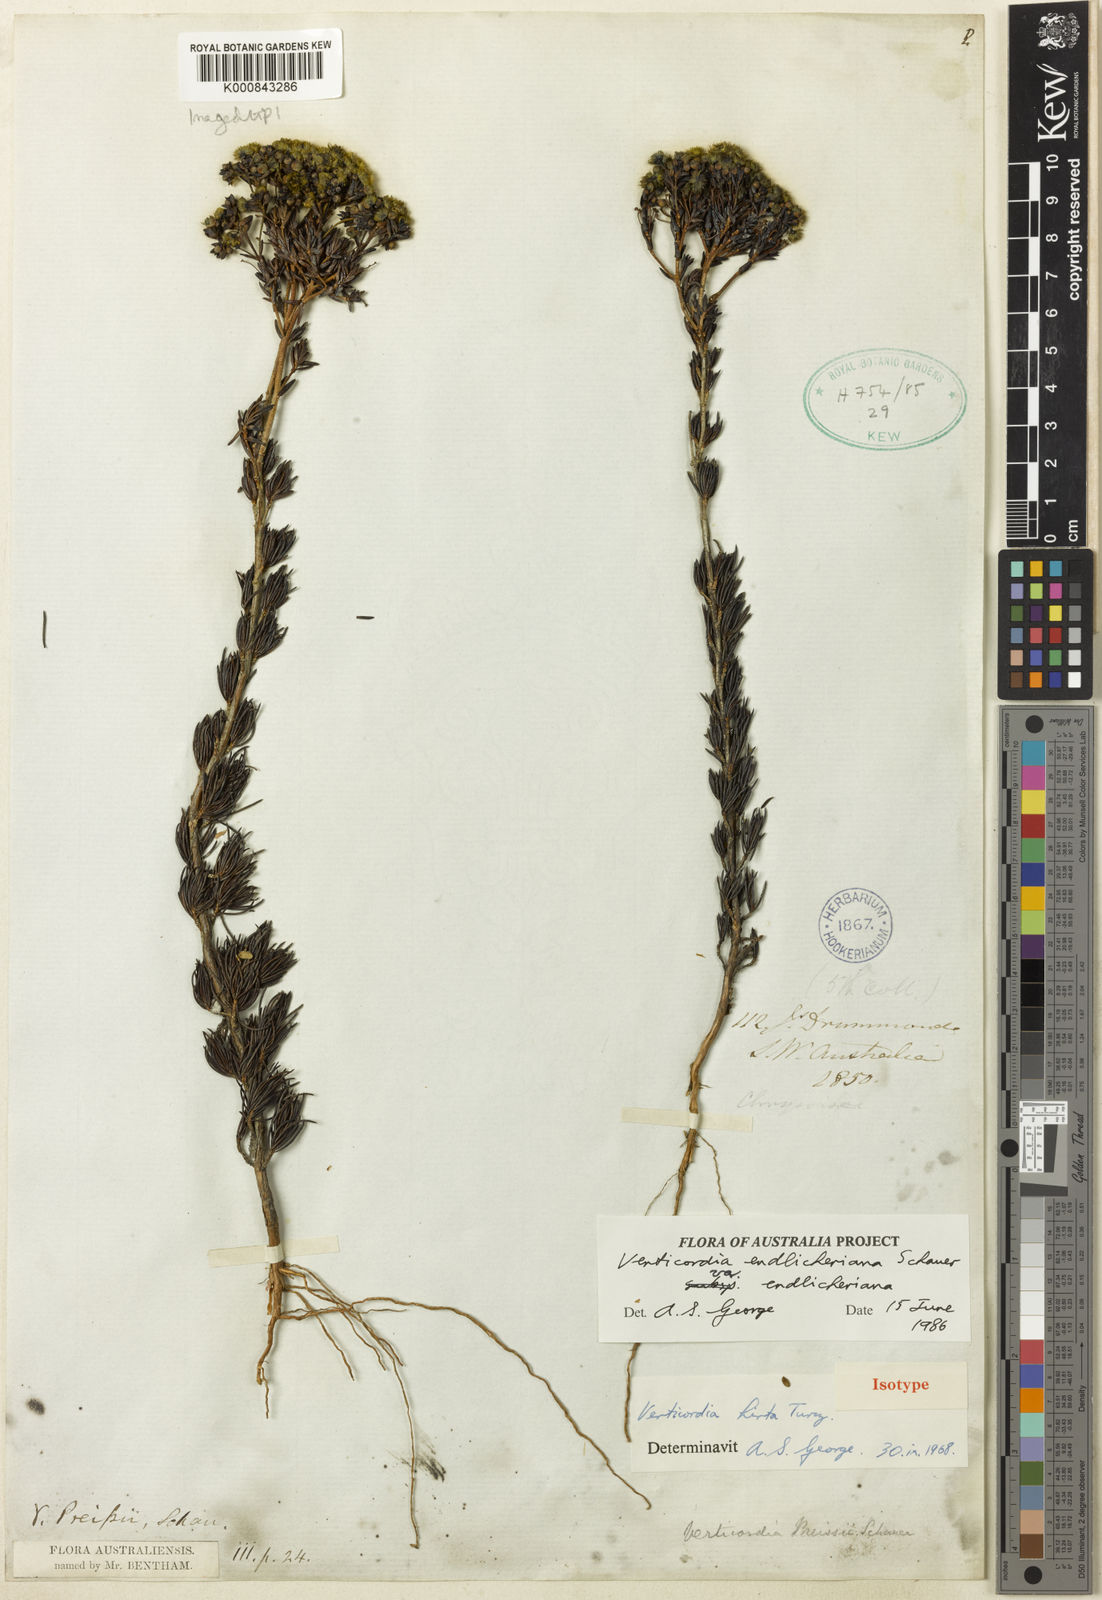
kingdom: Plantae
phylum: Tracheophyta
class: Magnoliopsida
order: Myrtales
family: Myrtaceae
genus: Verticordia
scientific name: Verticordia endlicheriana
